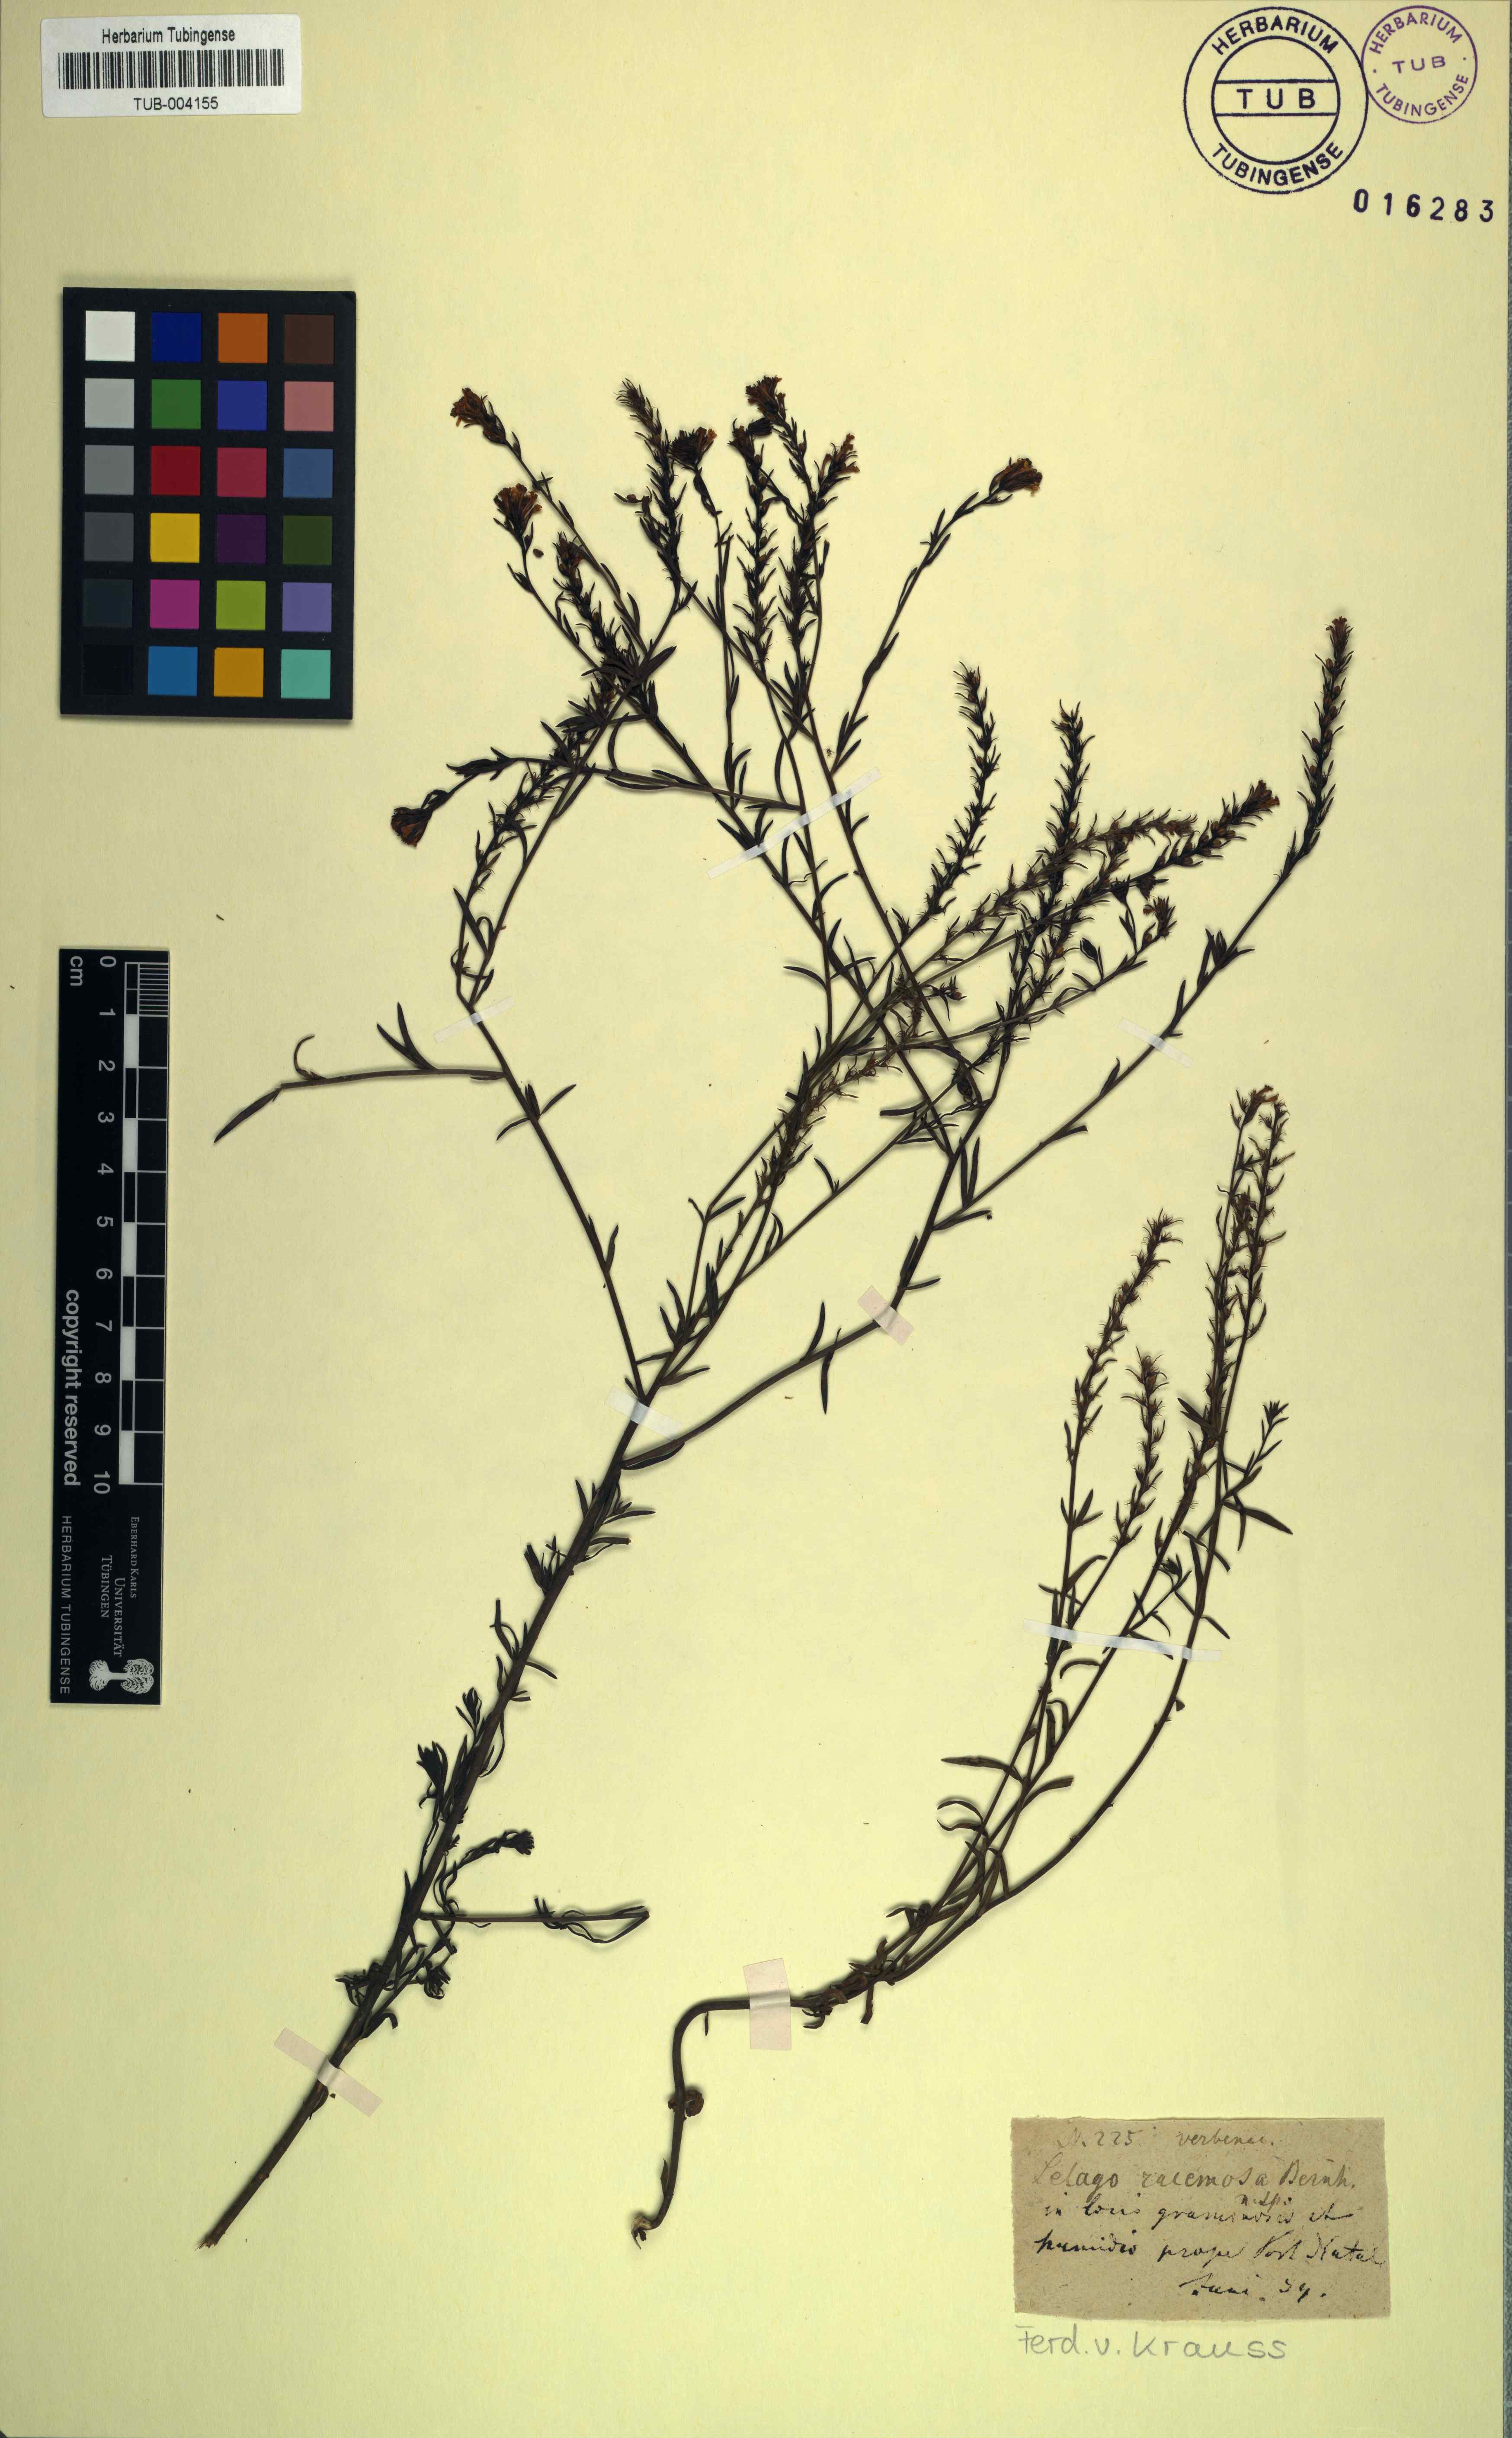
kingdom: Plantae
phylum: Tracheophyta
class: Magnoliopsida
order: Lamiales
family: Scrophulariaceae
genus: Selago
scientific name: Selago trinervia
